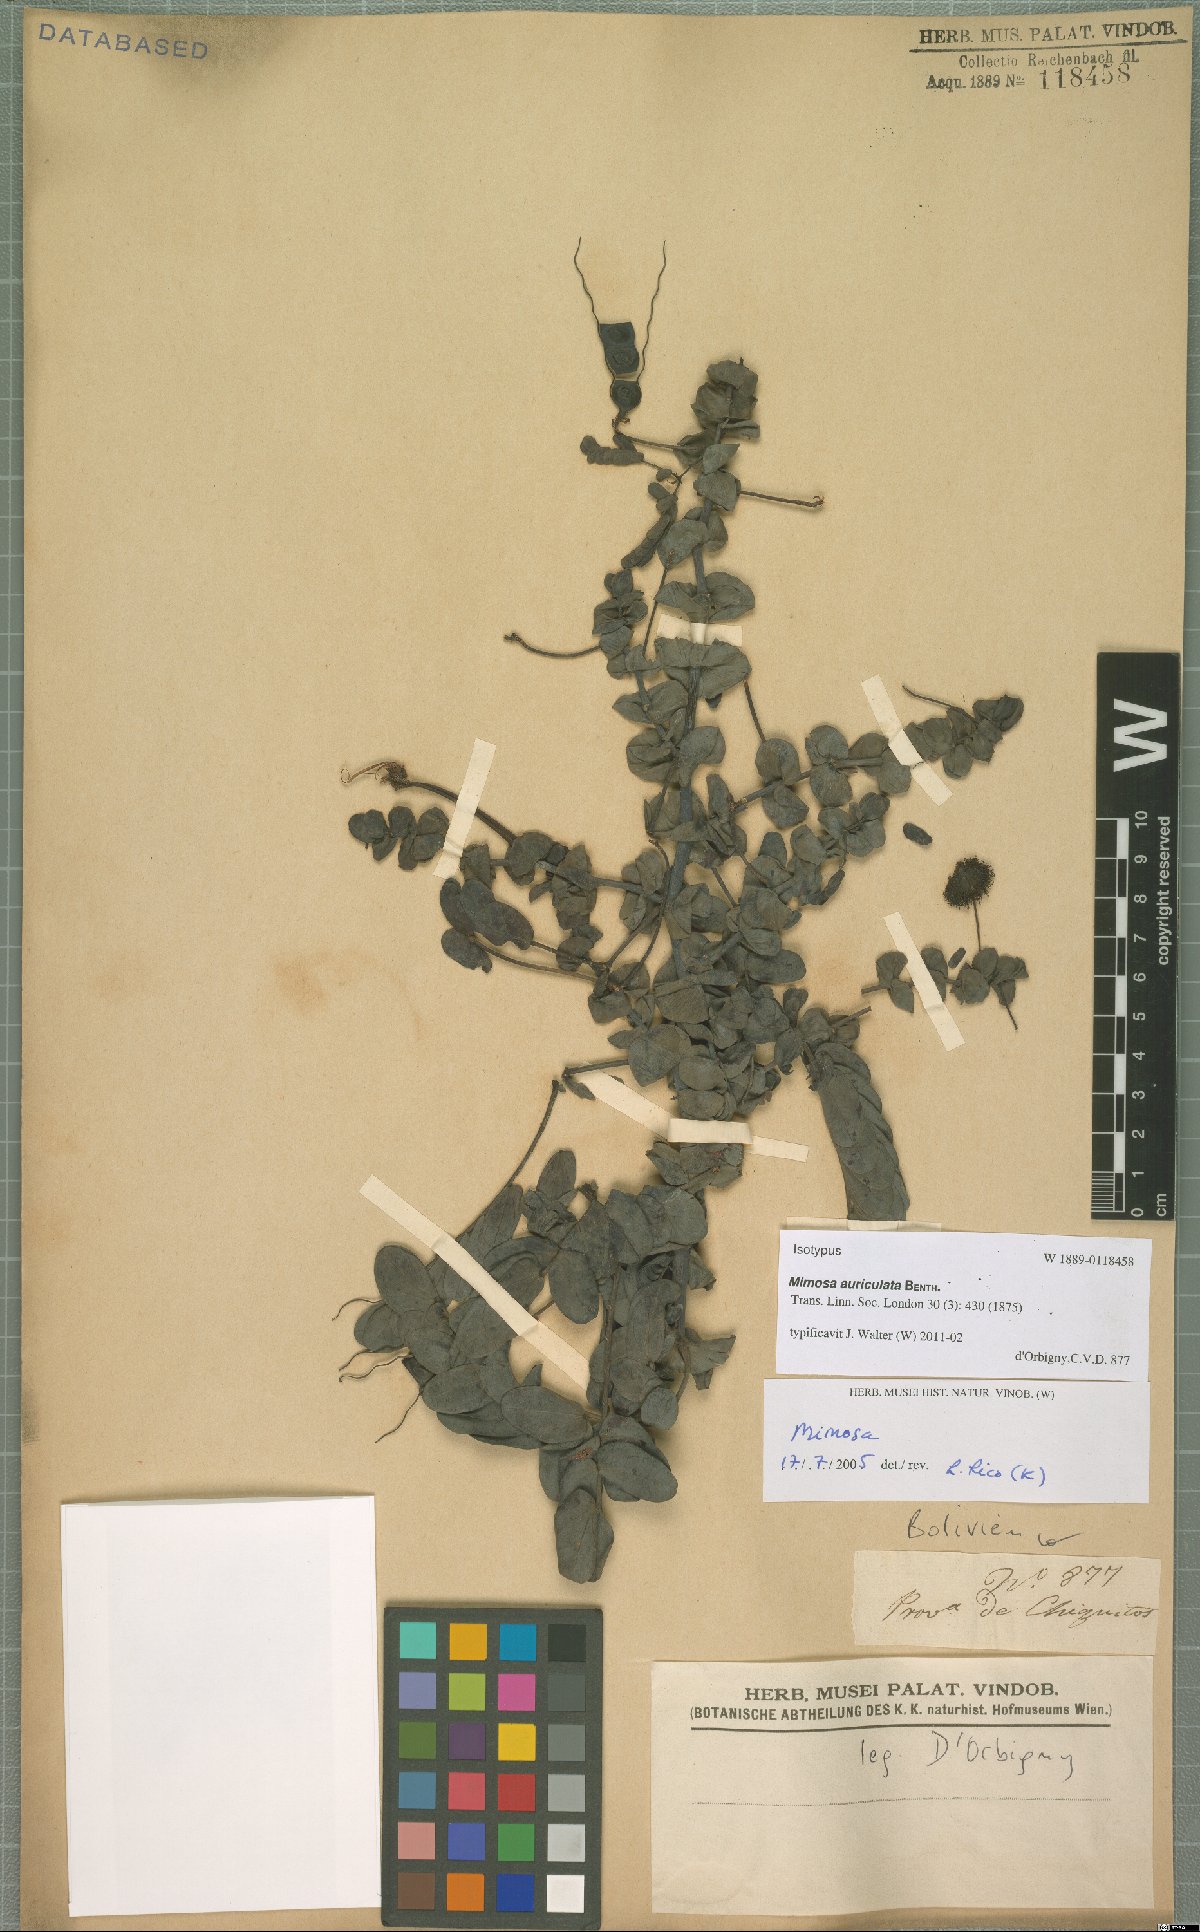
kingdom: Plantae
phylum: Tracheophyta
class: Magnoliopsida
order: Fabales
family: Fabaceae
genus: Mimosa
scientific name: Mimosa auriculata
